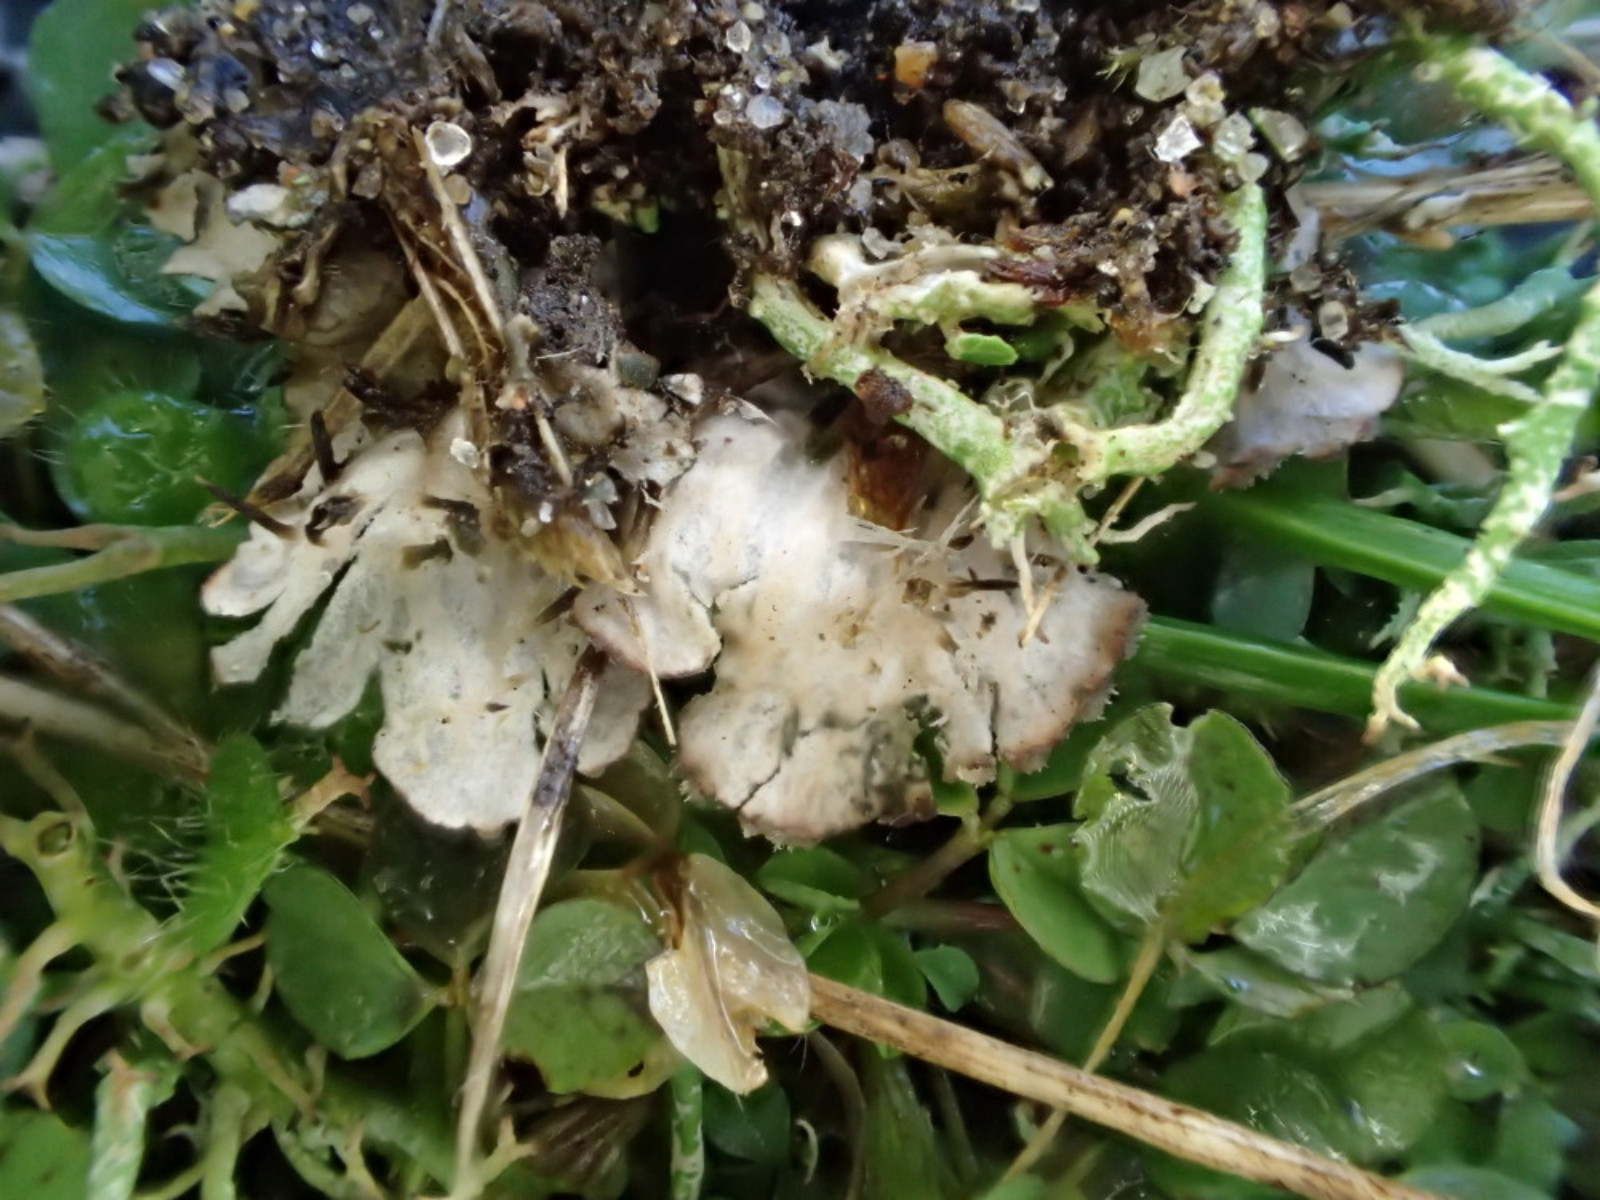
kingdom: Fungi
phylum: Ascomycota
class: Lecanoromycetes
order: Peltigerales
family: Peltigeraceae
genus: Peltigera
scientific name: Peltigera didactyla
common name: liden skjoldlav
